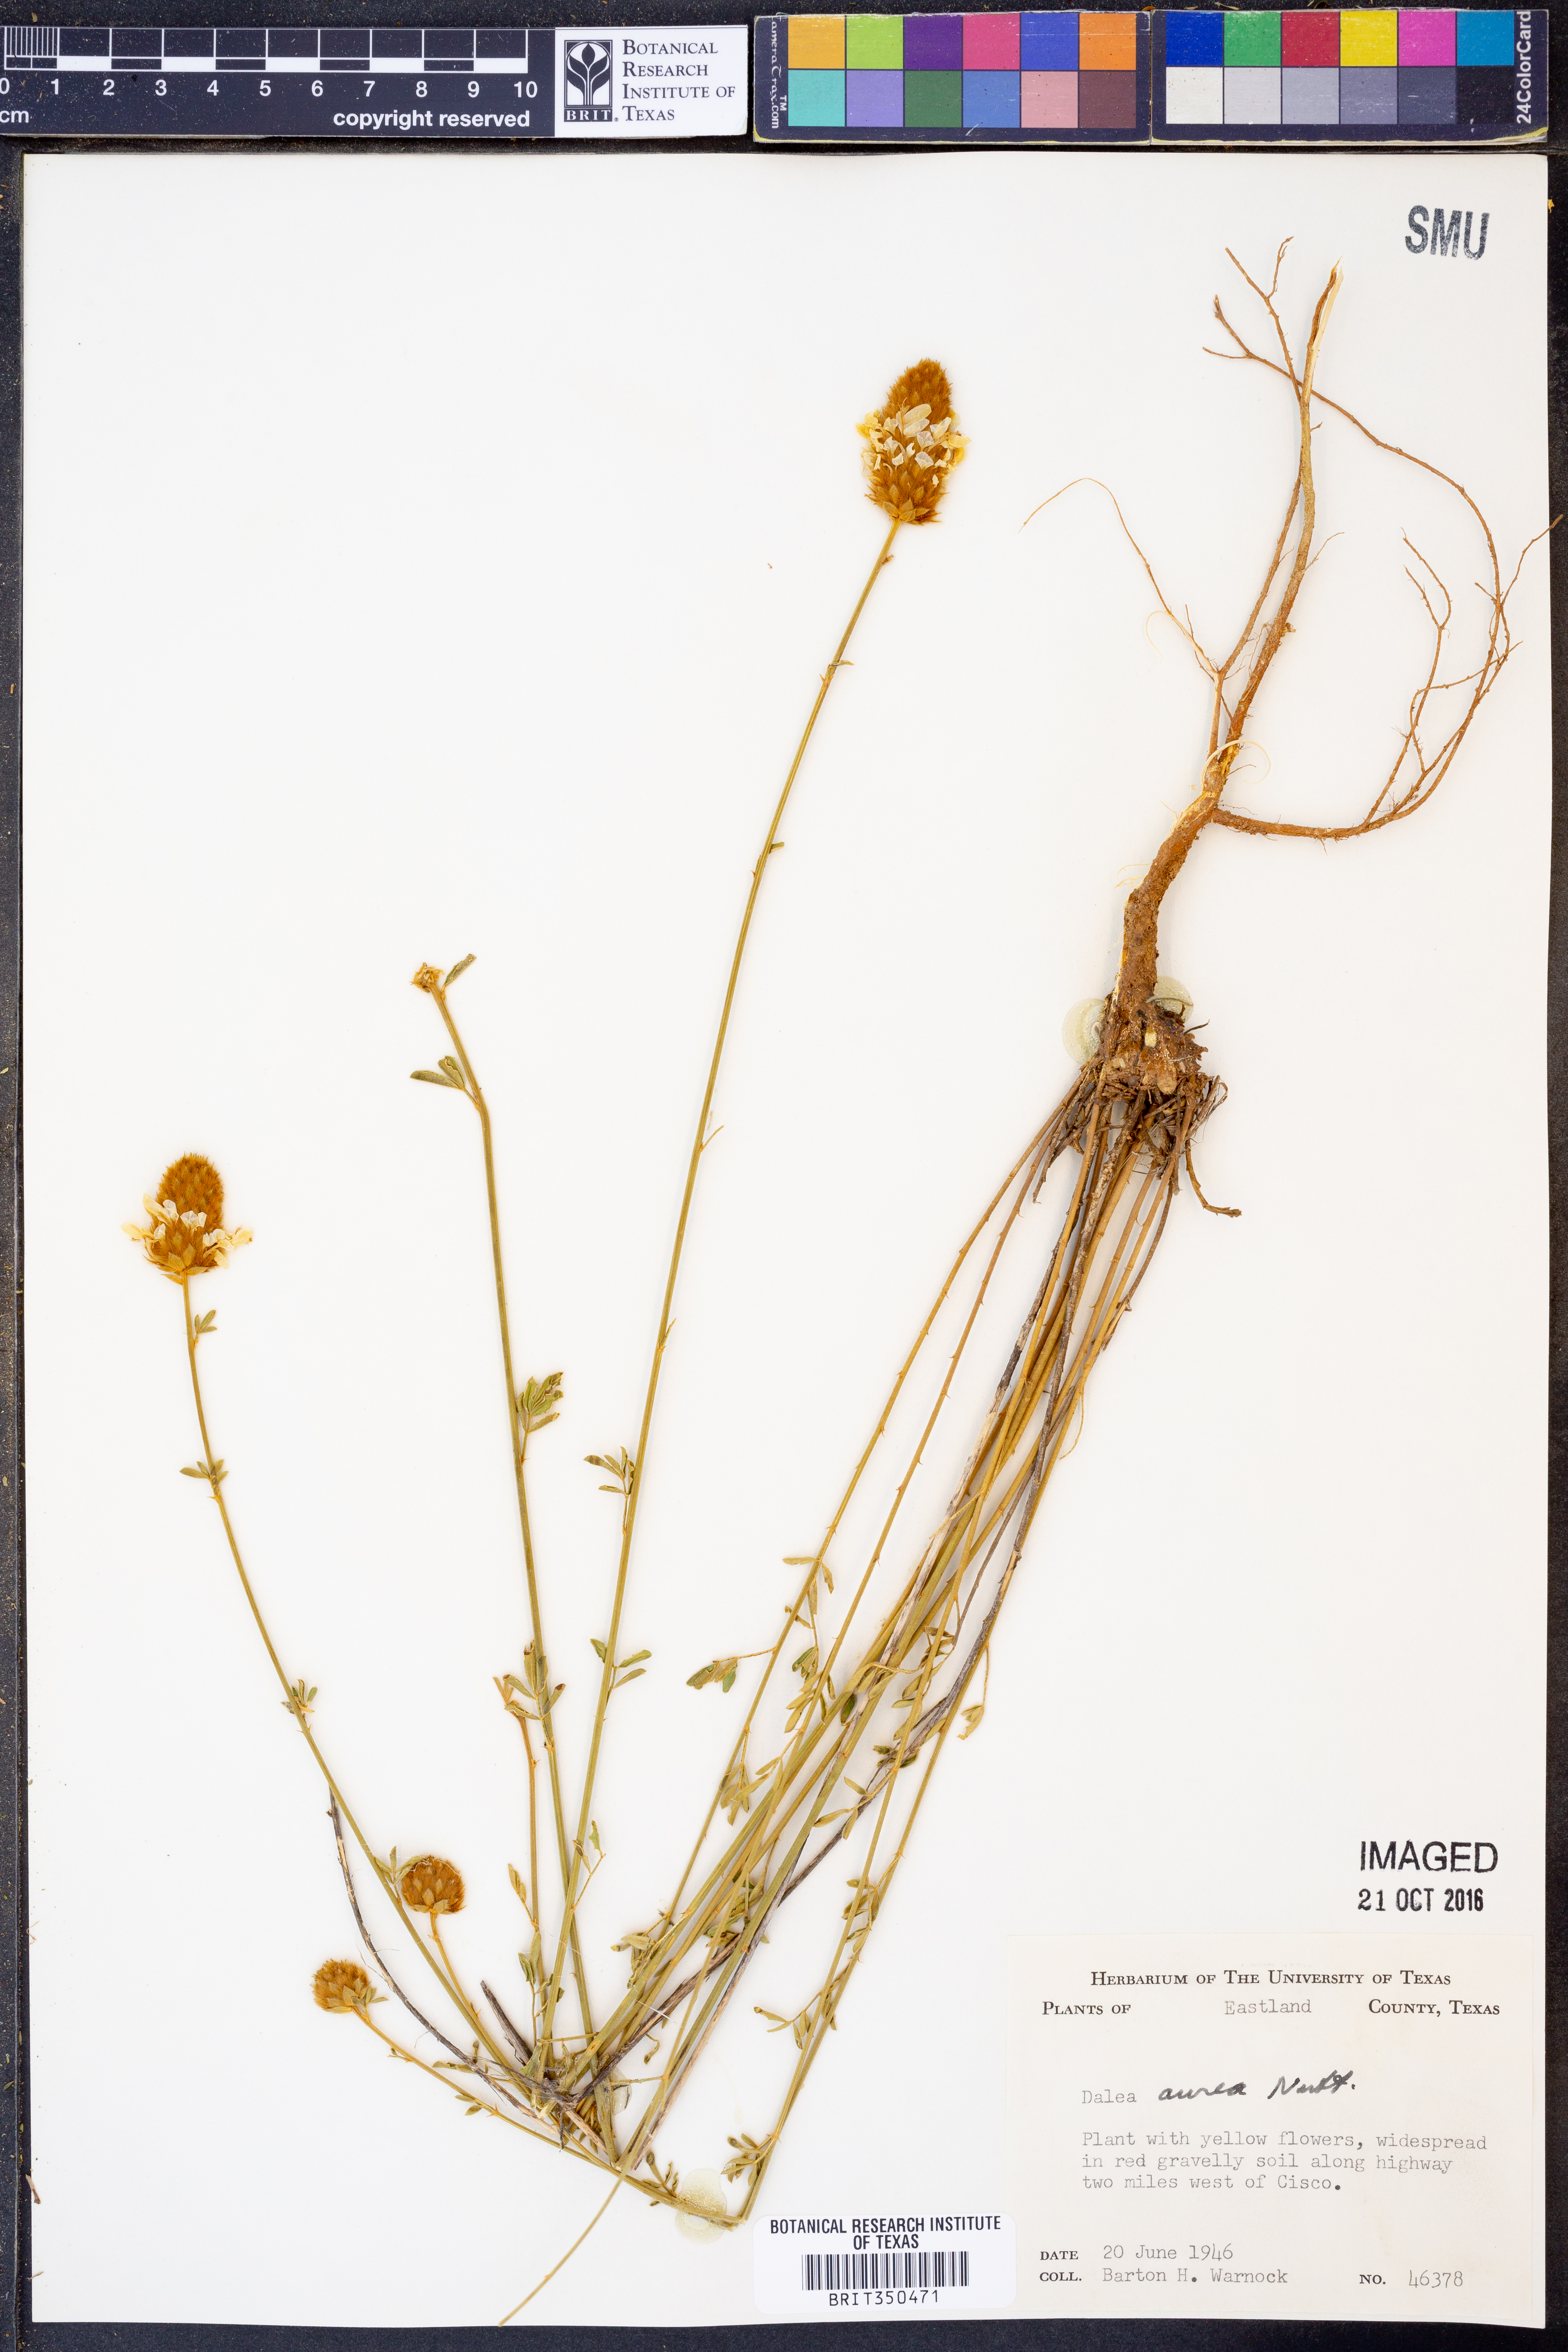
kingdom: Plantae
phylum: Tracheophyta
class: Magnoliopsida
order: Fabales
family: Fabaceae
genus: Dalea
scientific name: Dalea aurea
